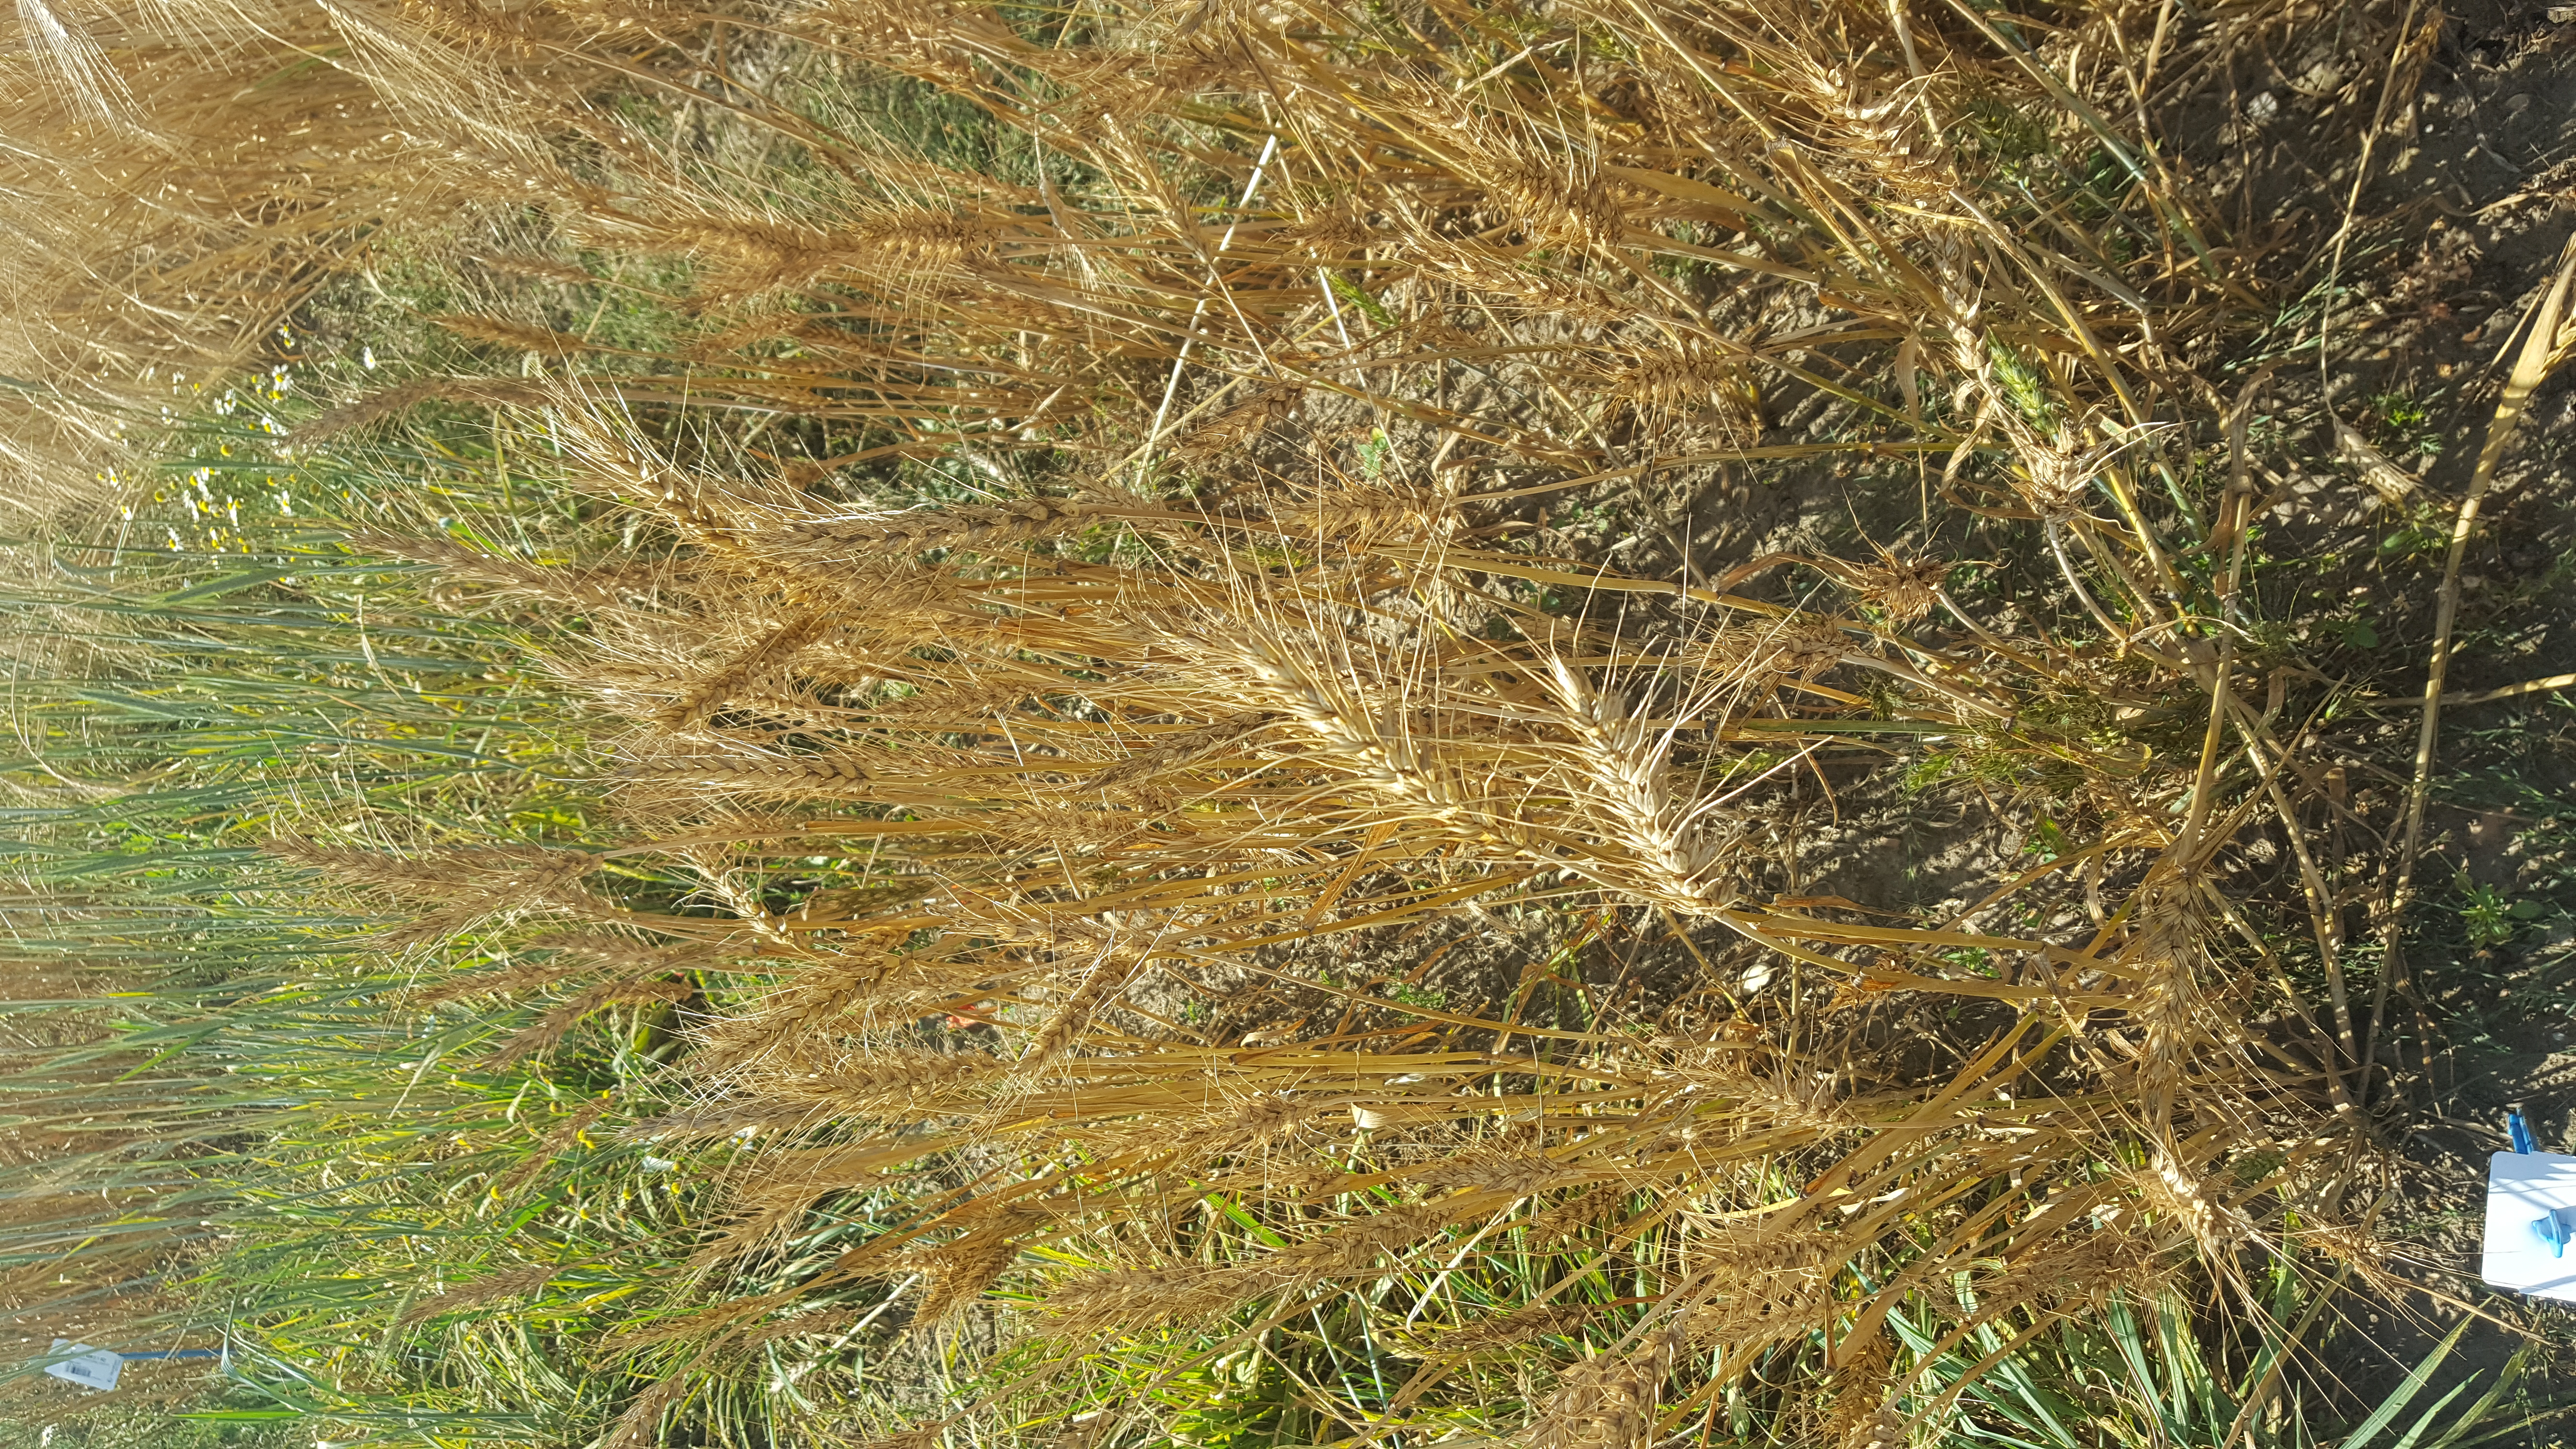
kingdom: Plantae
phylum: Tracheophyta
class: Liliopsida
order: Poales
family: Poaceae
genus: Triticum
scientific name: Triticum aestivum
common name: Common wheat
